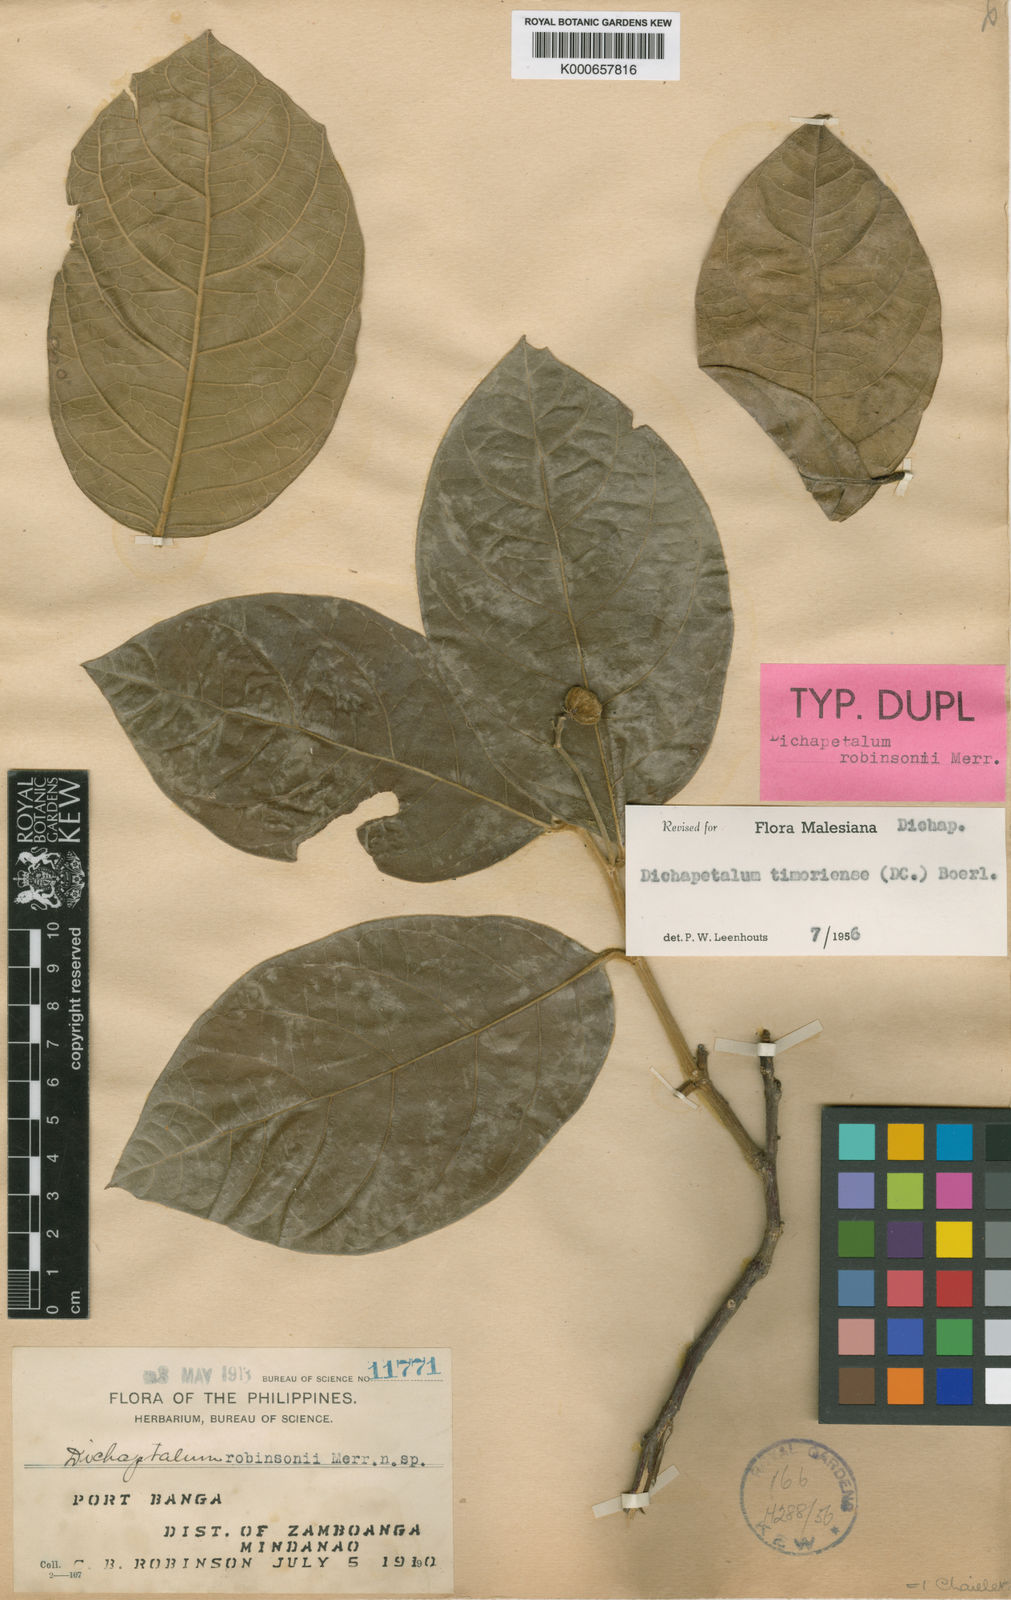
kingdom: Plantae
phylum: Tracheophyta
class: Magnoliopsida
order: Malpighiales
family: Dichapetalaceae
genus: Dichapetalum
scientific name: Dichapetalum timoriense
